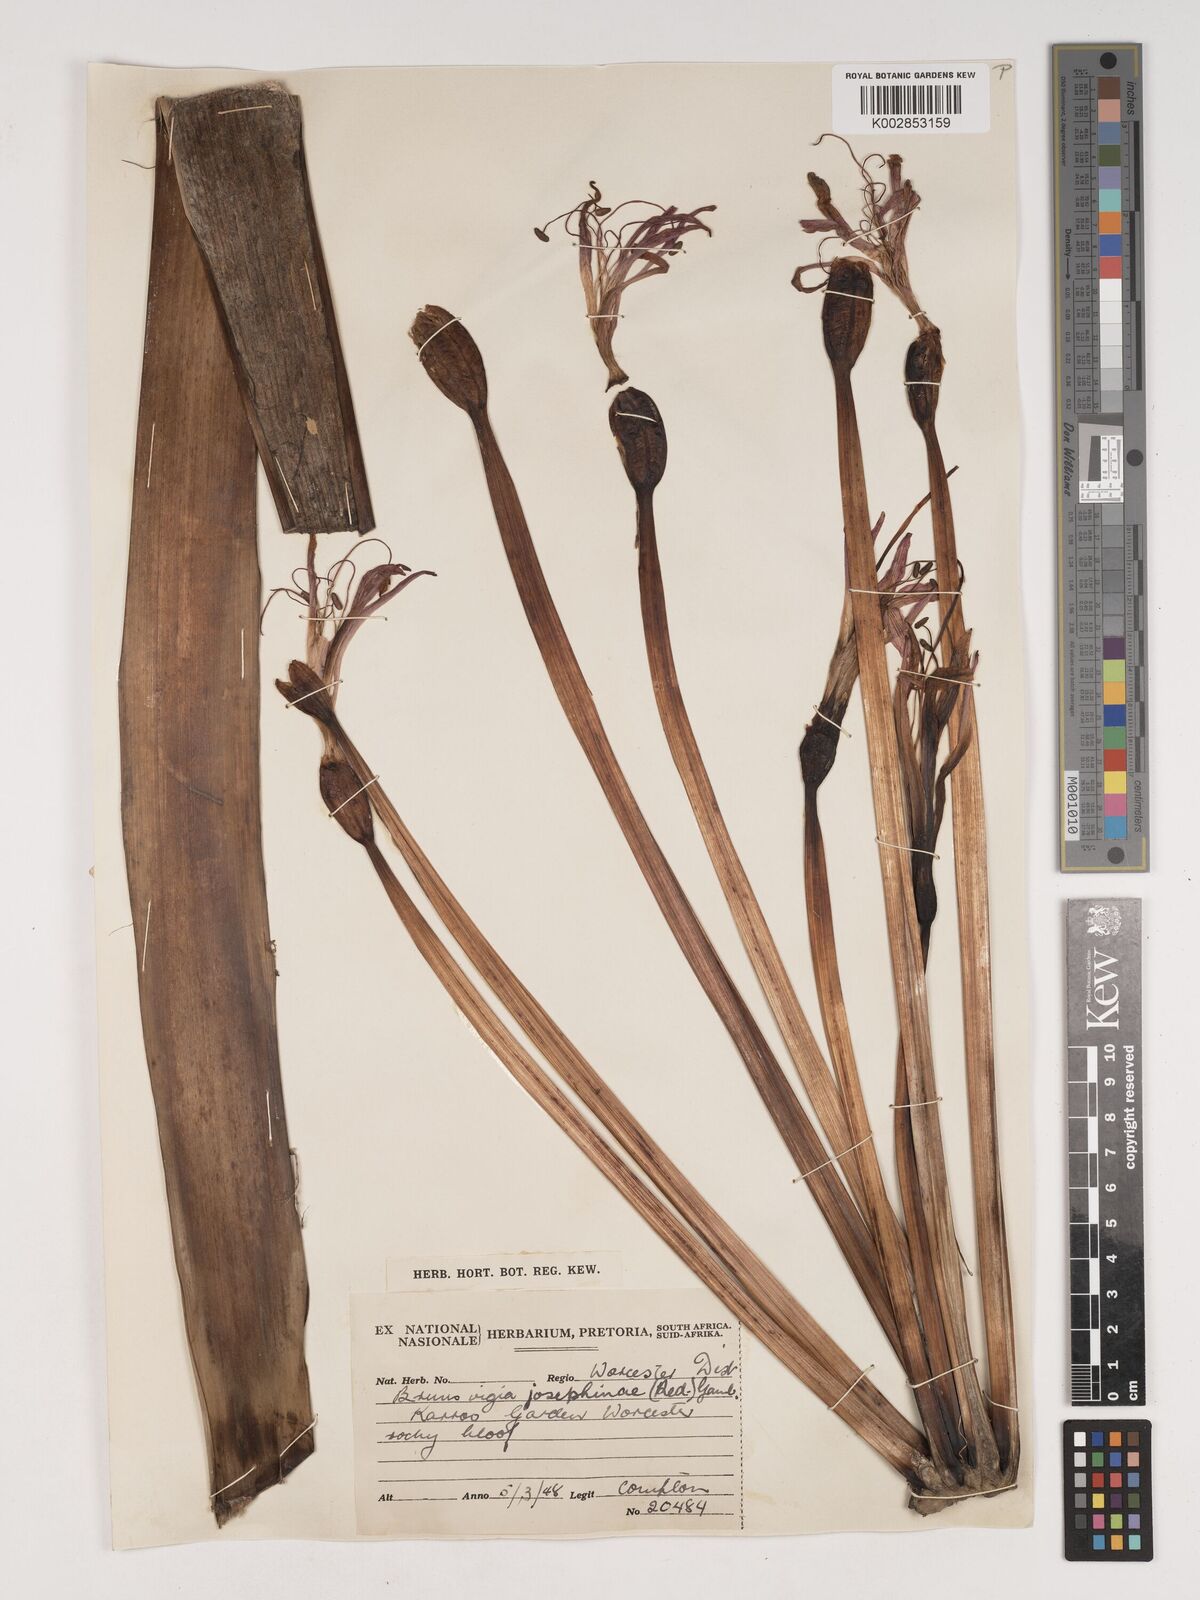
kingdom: Plantae
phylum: Tracheophyta
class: Liliopsida
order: Asparagales
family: Amaryllidaceae
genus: Brunsvigia
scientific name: Brunsvigia josephinae
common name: Josephine's-lily
